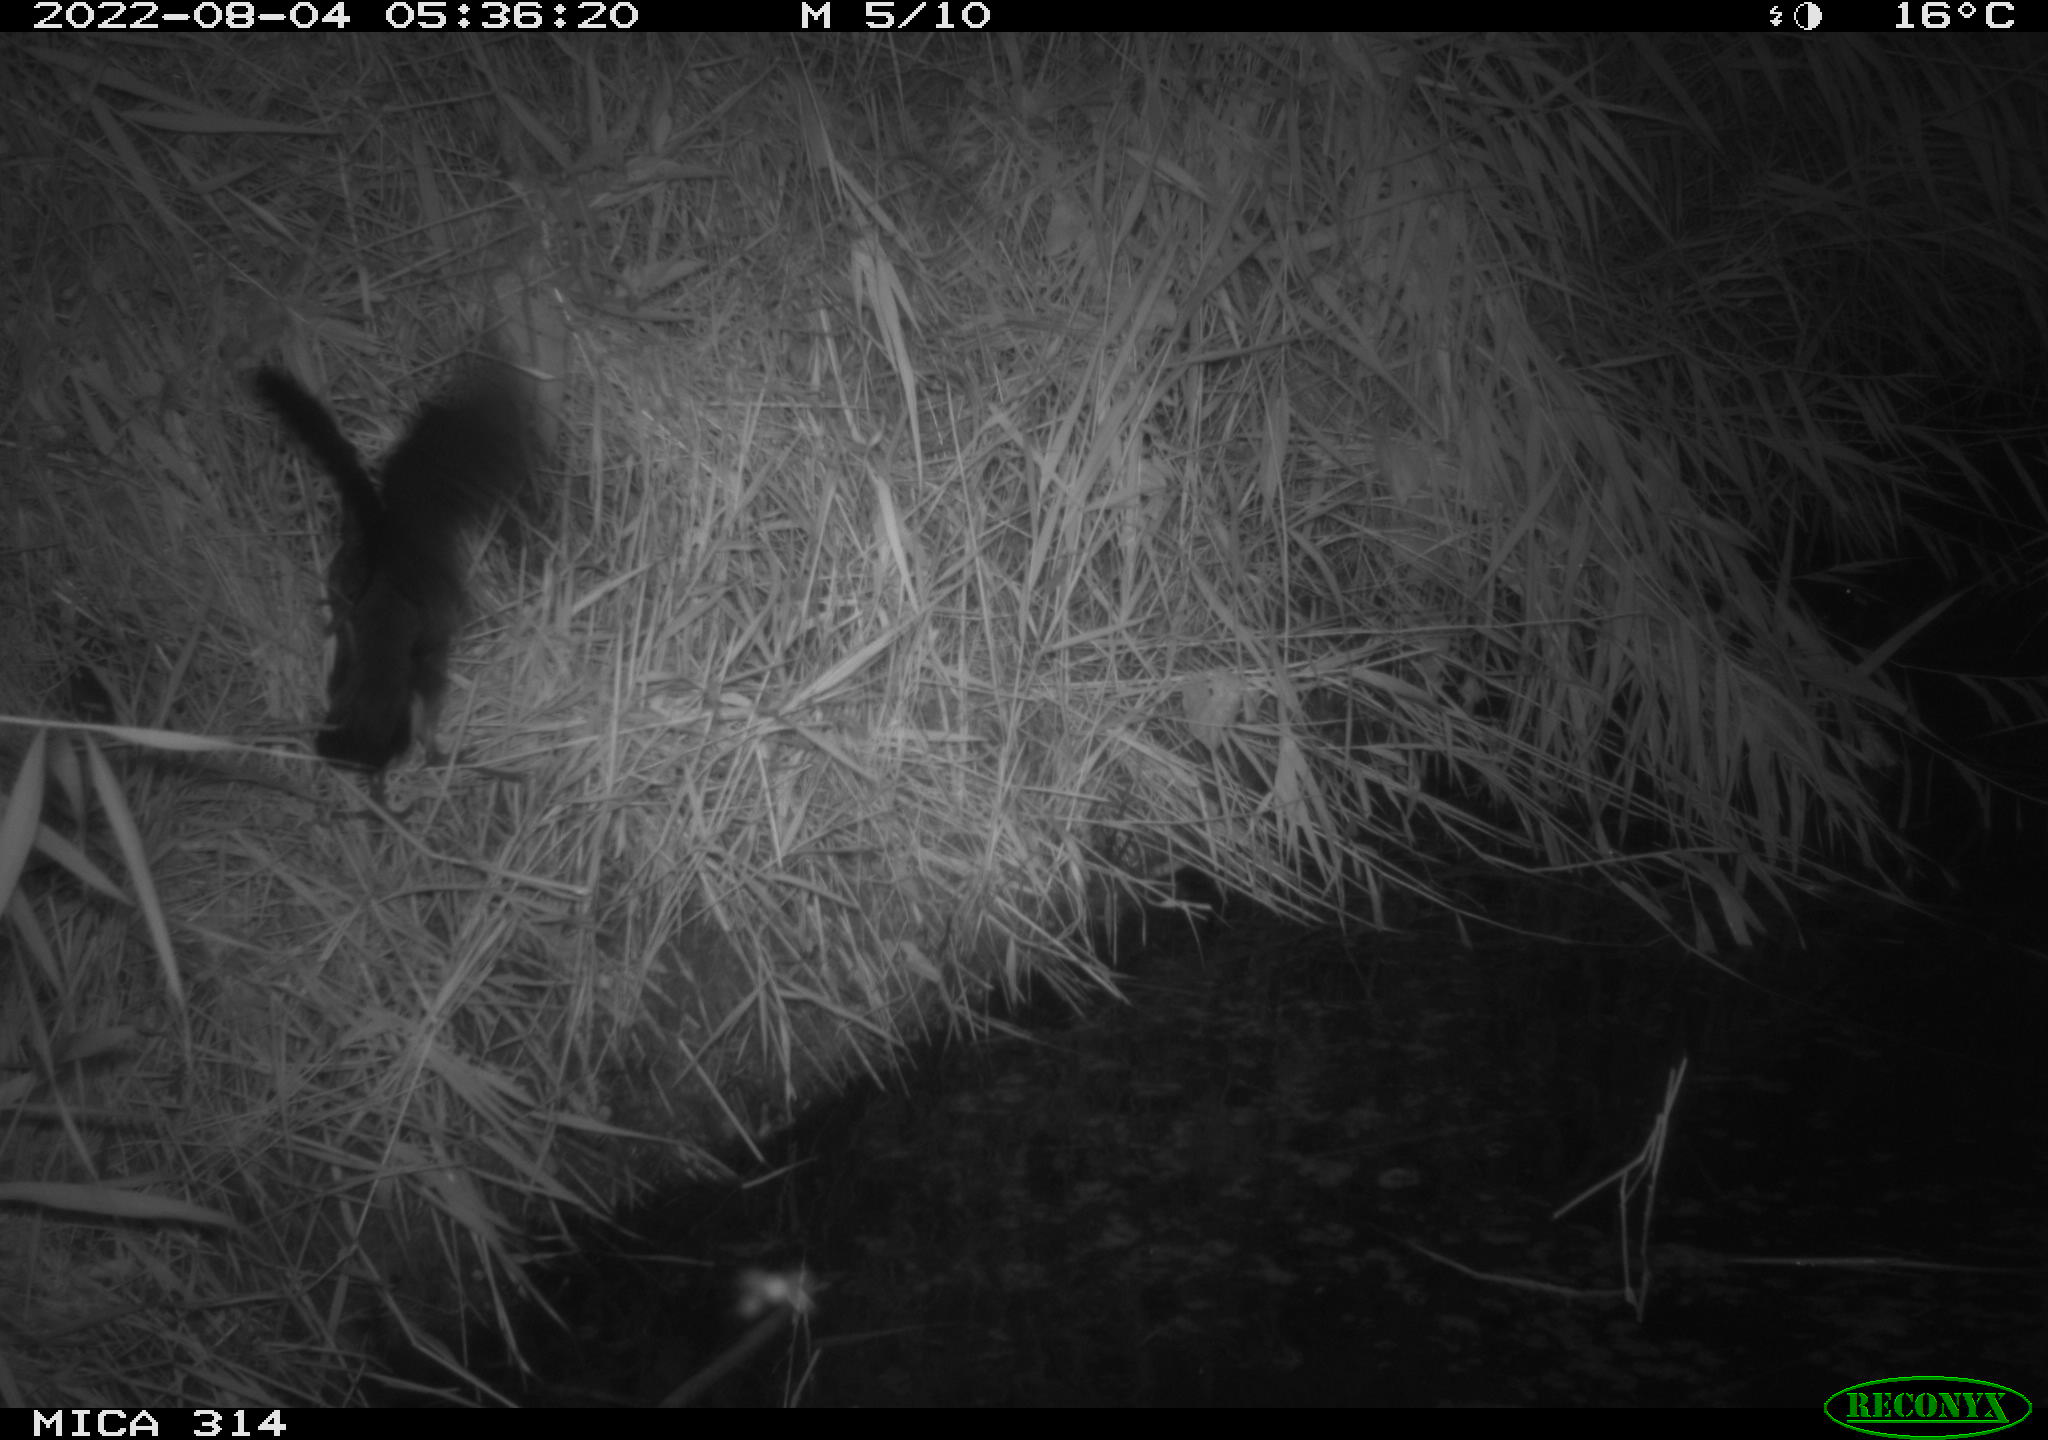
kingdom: Animalia
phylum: Chordata
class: Aves
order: Gruiformes
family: Rallidae
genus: Gallinula
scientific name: Gallinula chloropus
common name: Common moorhen
